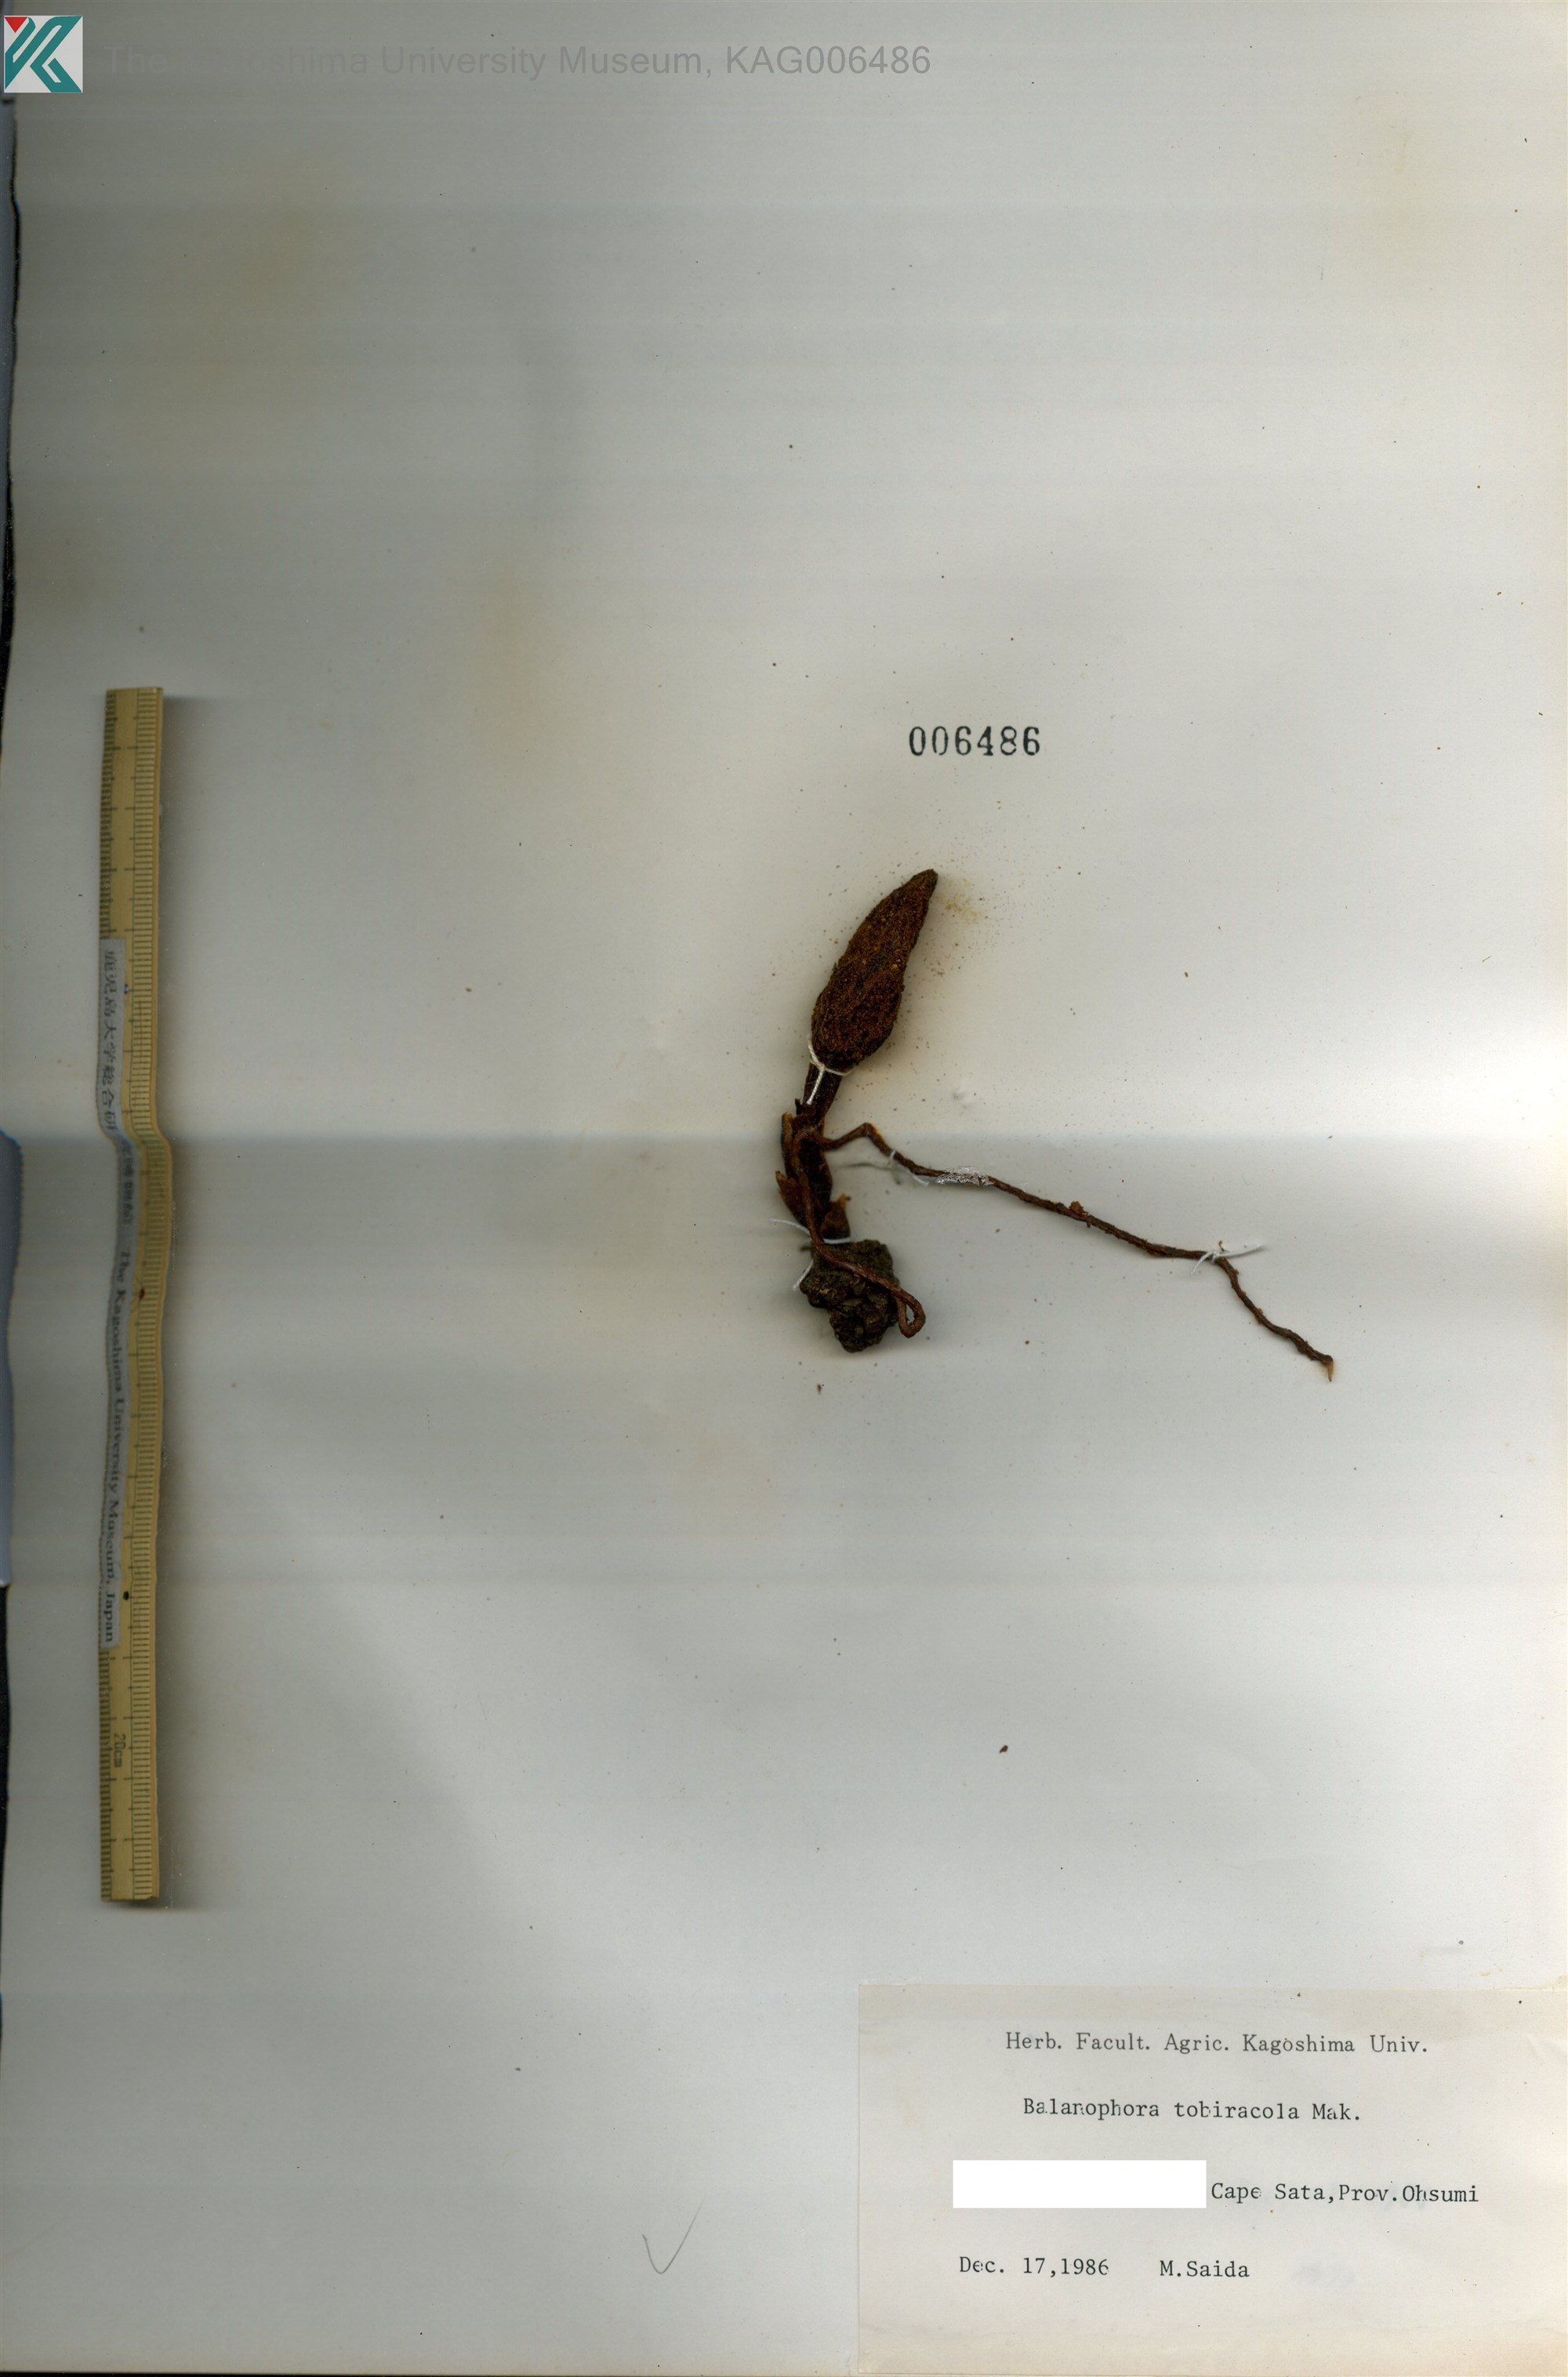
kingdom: Plantae
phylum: Tracheophyta
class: Magnoliopsida
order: Santalales
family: Balanophoraceae
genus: Balanophora
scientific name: Balanophora tobiracola
